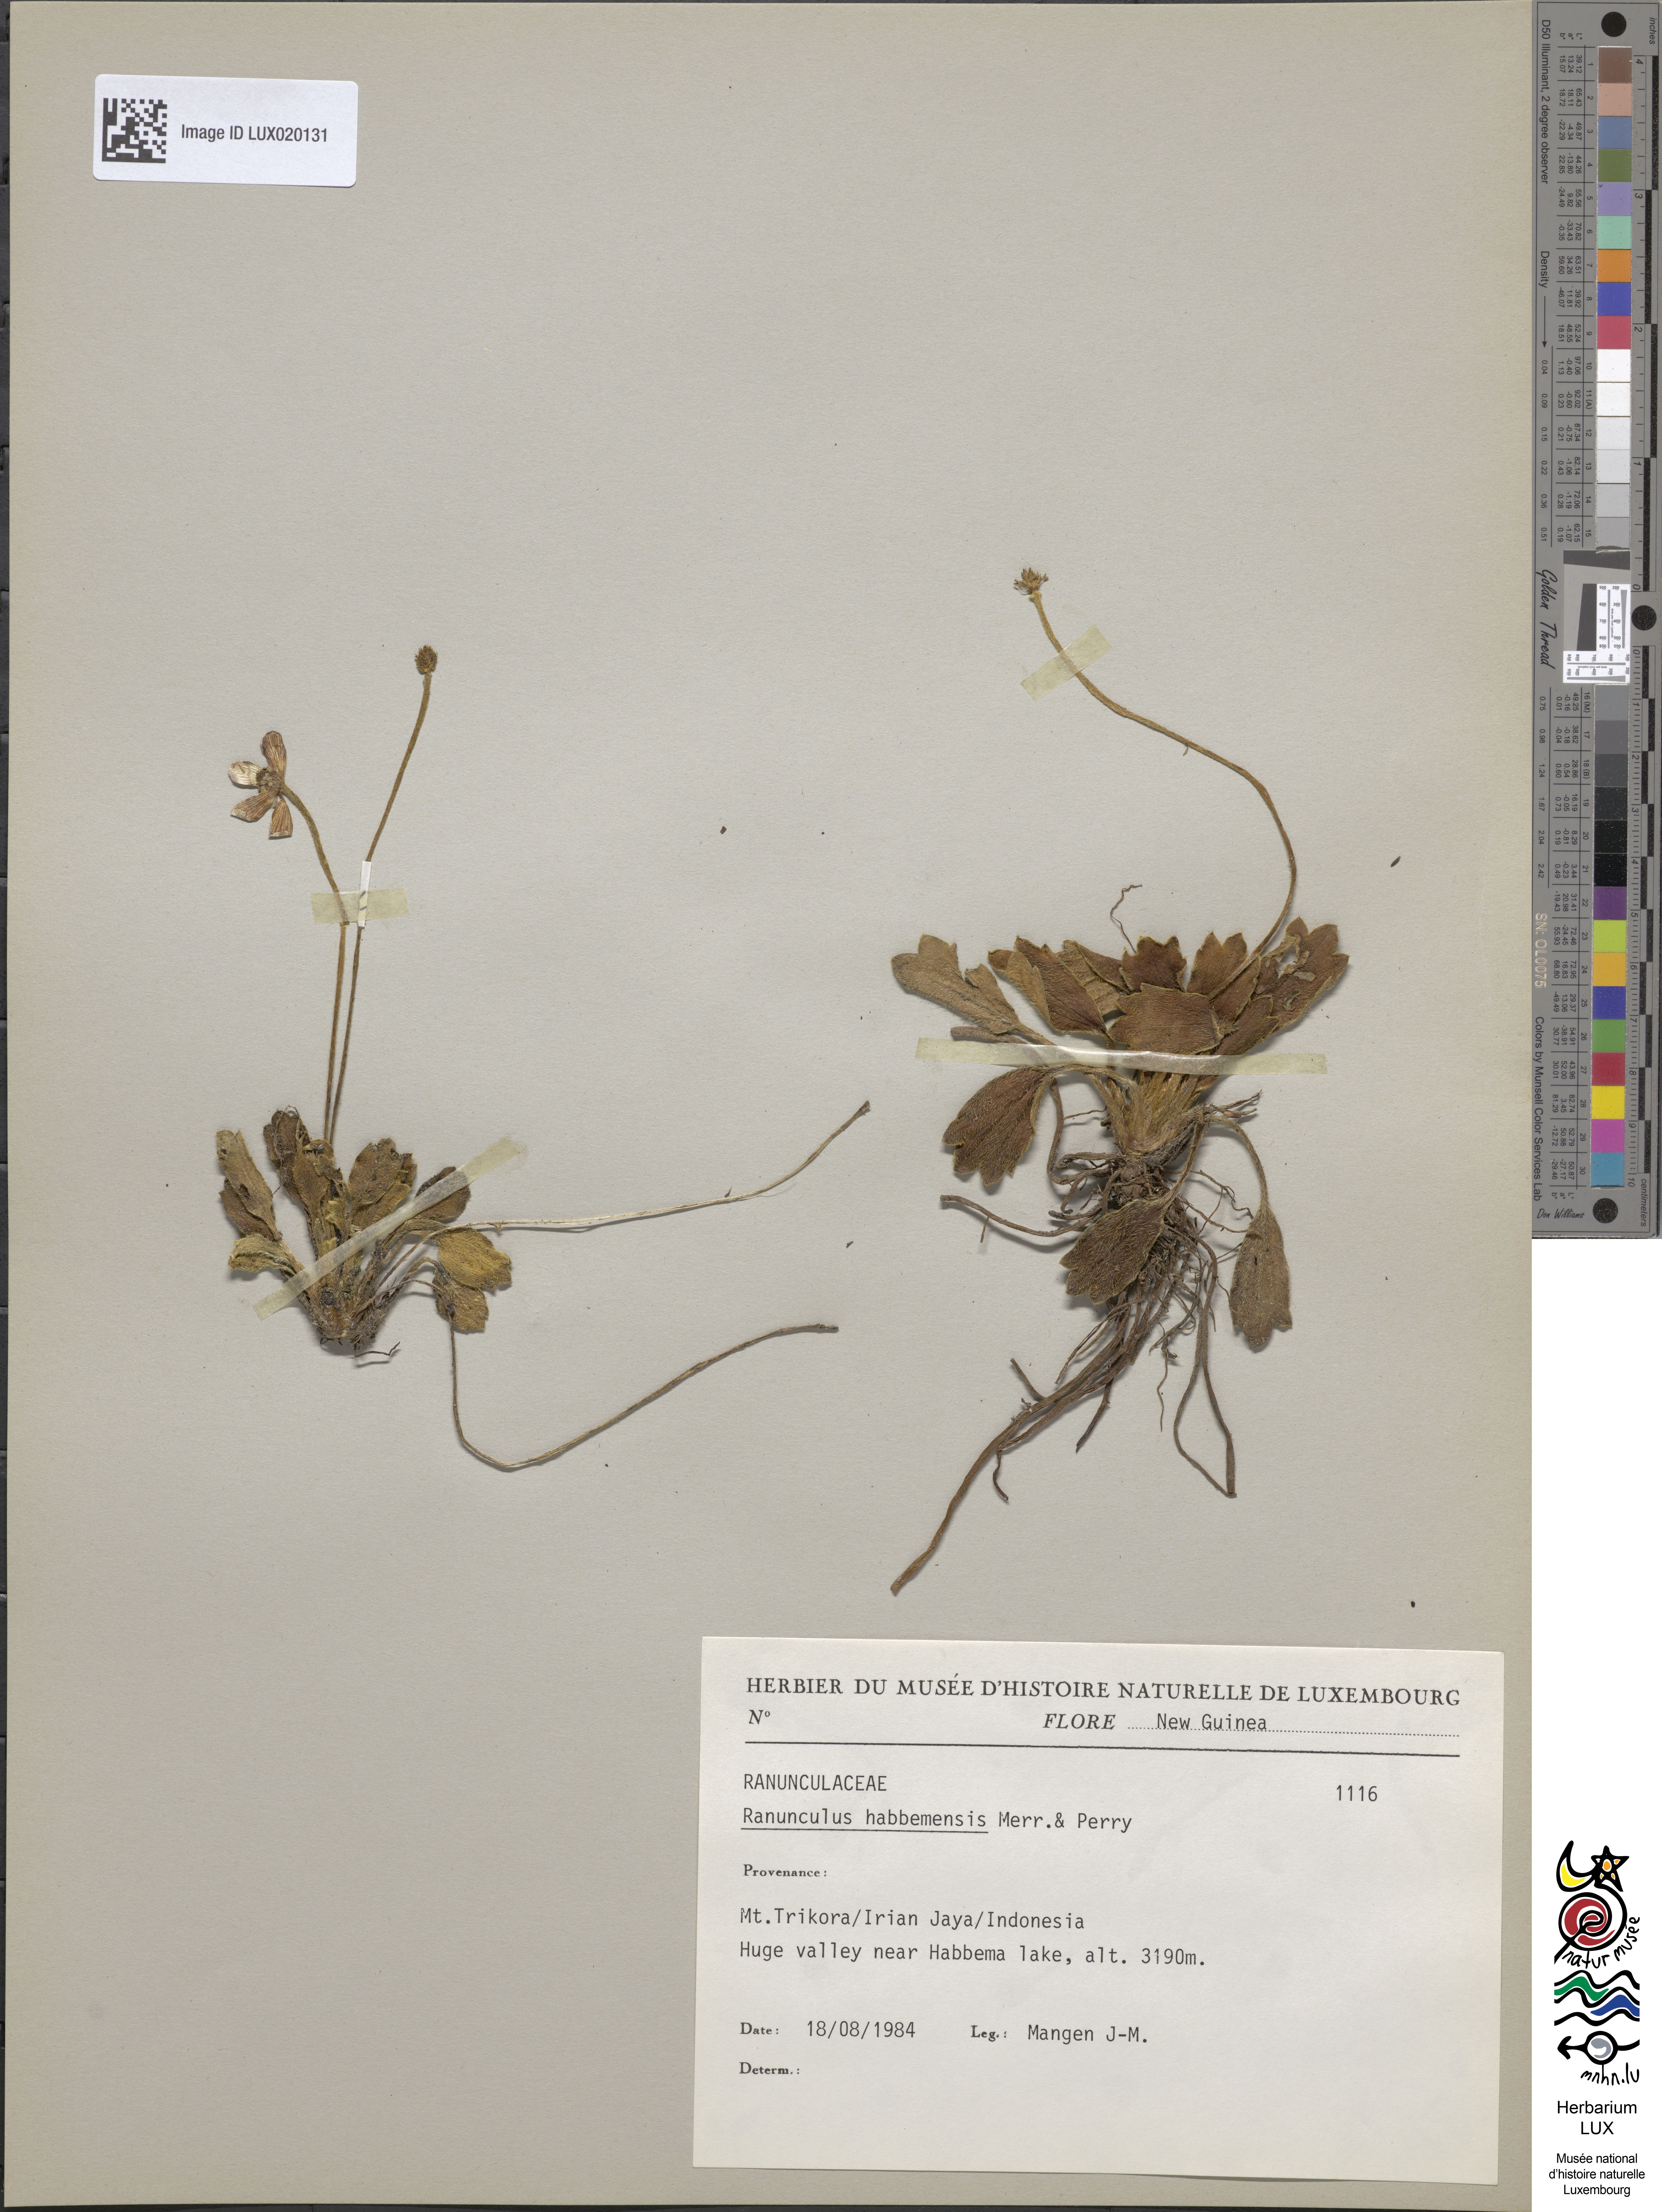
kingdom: Plantae
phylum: Tracheophyta
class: Magnoliopsida
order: Ranunculales
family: Ranunculaceae
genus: Ranunculus
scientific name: Ranunculus habbemensis
